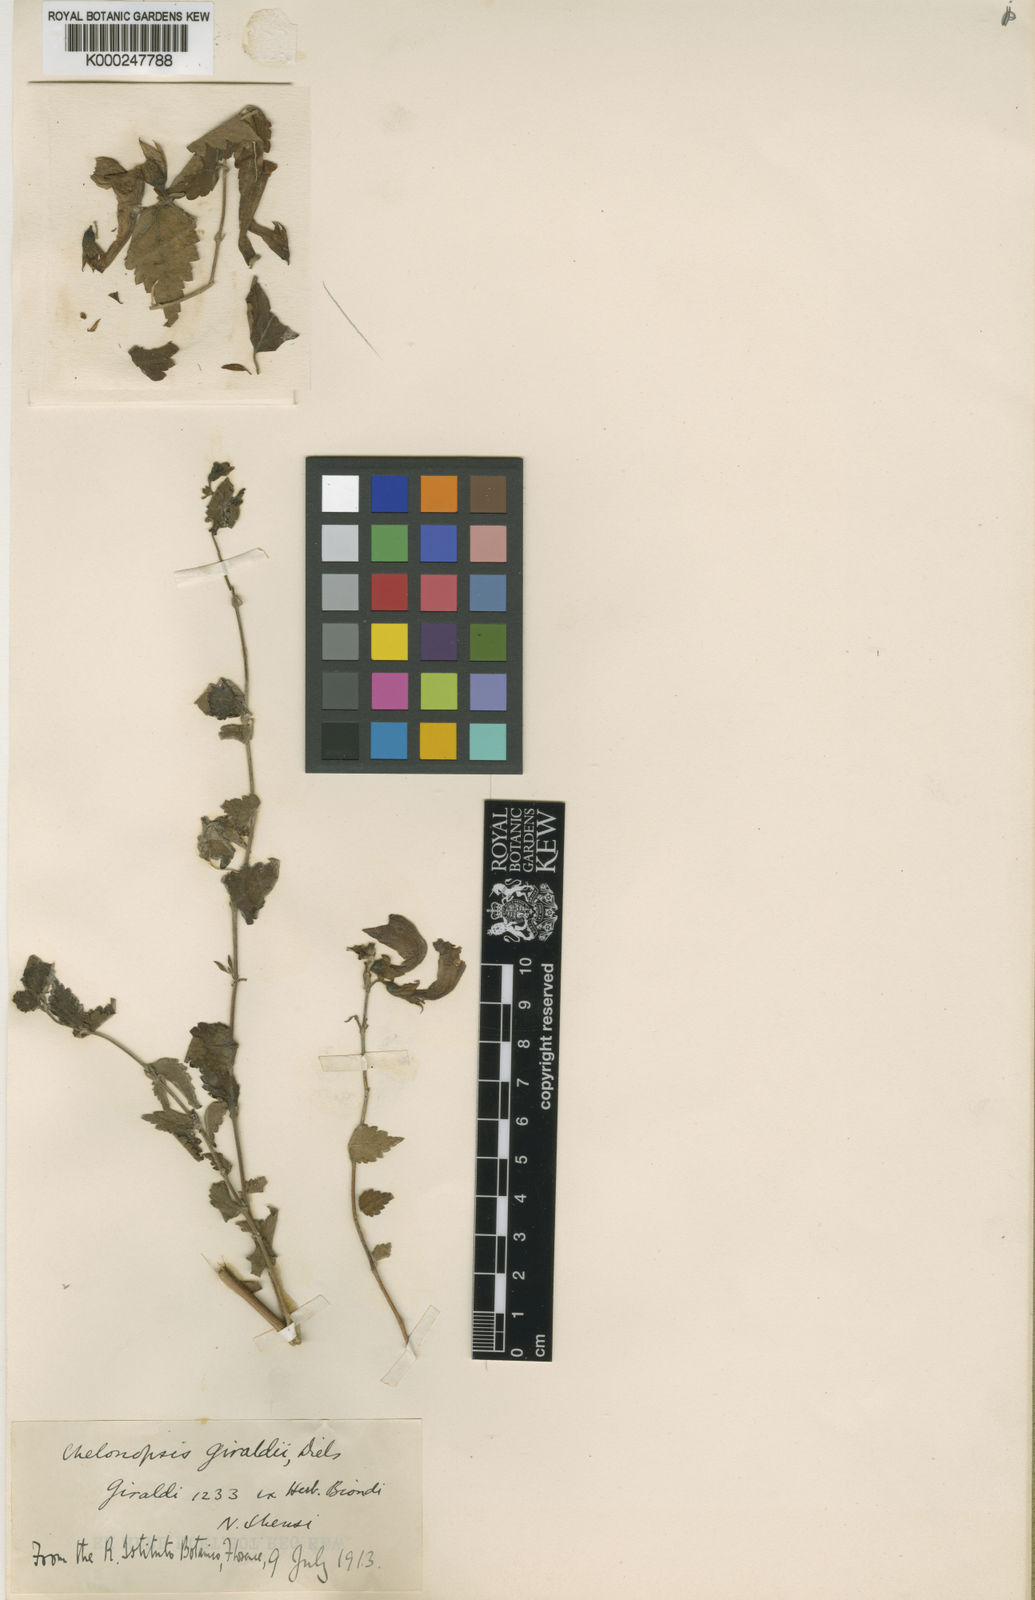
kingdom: Plantae
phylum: Tracheophyta
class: Magnoliopsida
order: Lamiales
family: Lamiaceae
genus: Chelonopsis
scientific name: Chelonopsis giraldii
